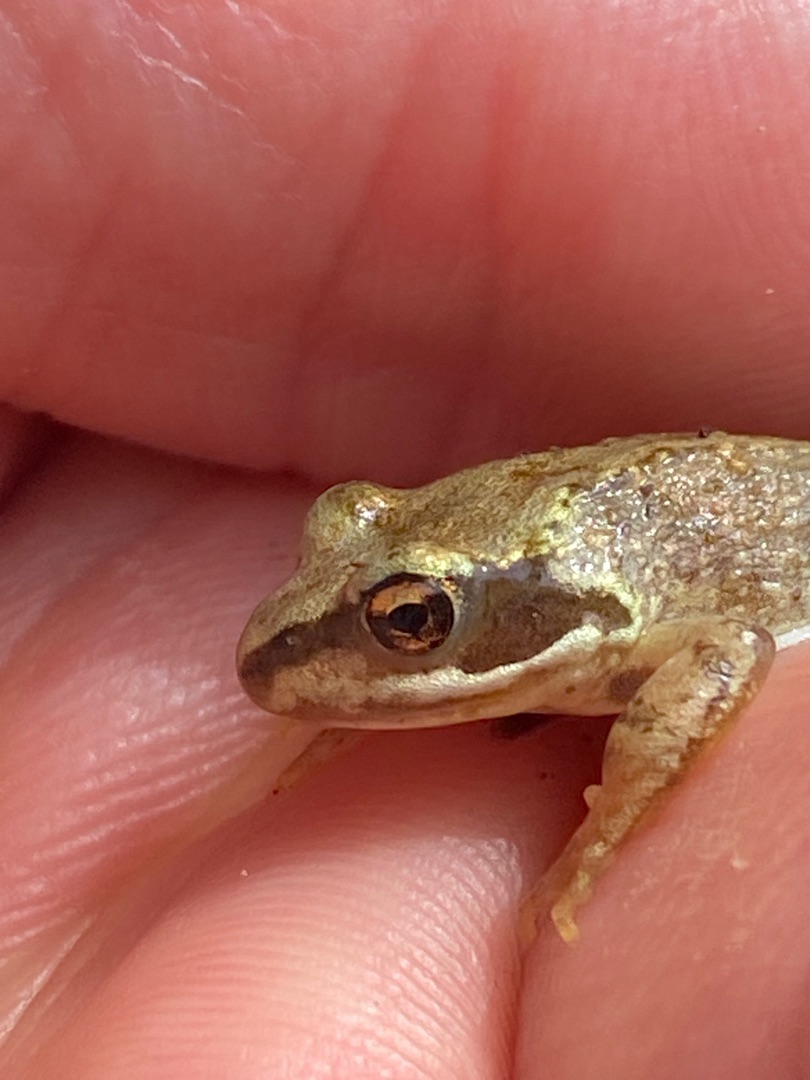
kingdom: Animalia
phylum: Chordata
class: Amphibia
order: Anura
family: Ranidae
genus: Rana
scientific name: Rana temporaria
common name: Butsnudet frø
